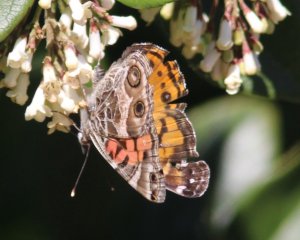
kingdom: Animalia
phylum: Arthropoda
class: Insecta
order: Lepidoptera
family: Nymphalidae
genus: Vanessa
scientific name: Vanessa virginiensis
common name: American Lady
